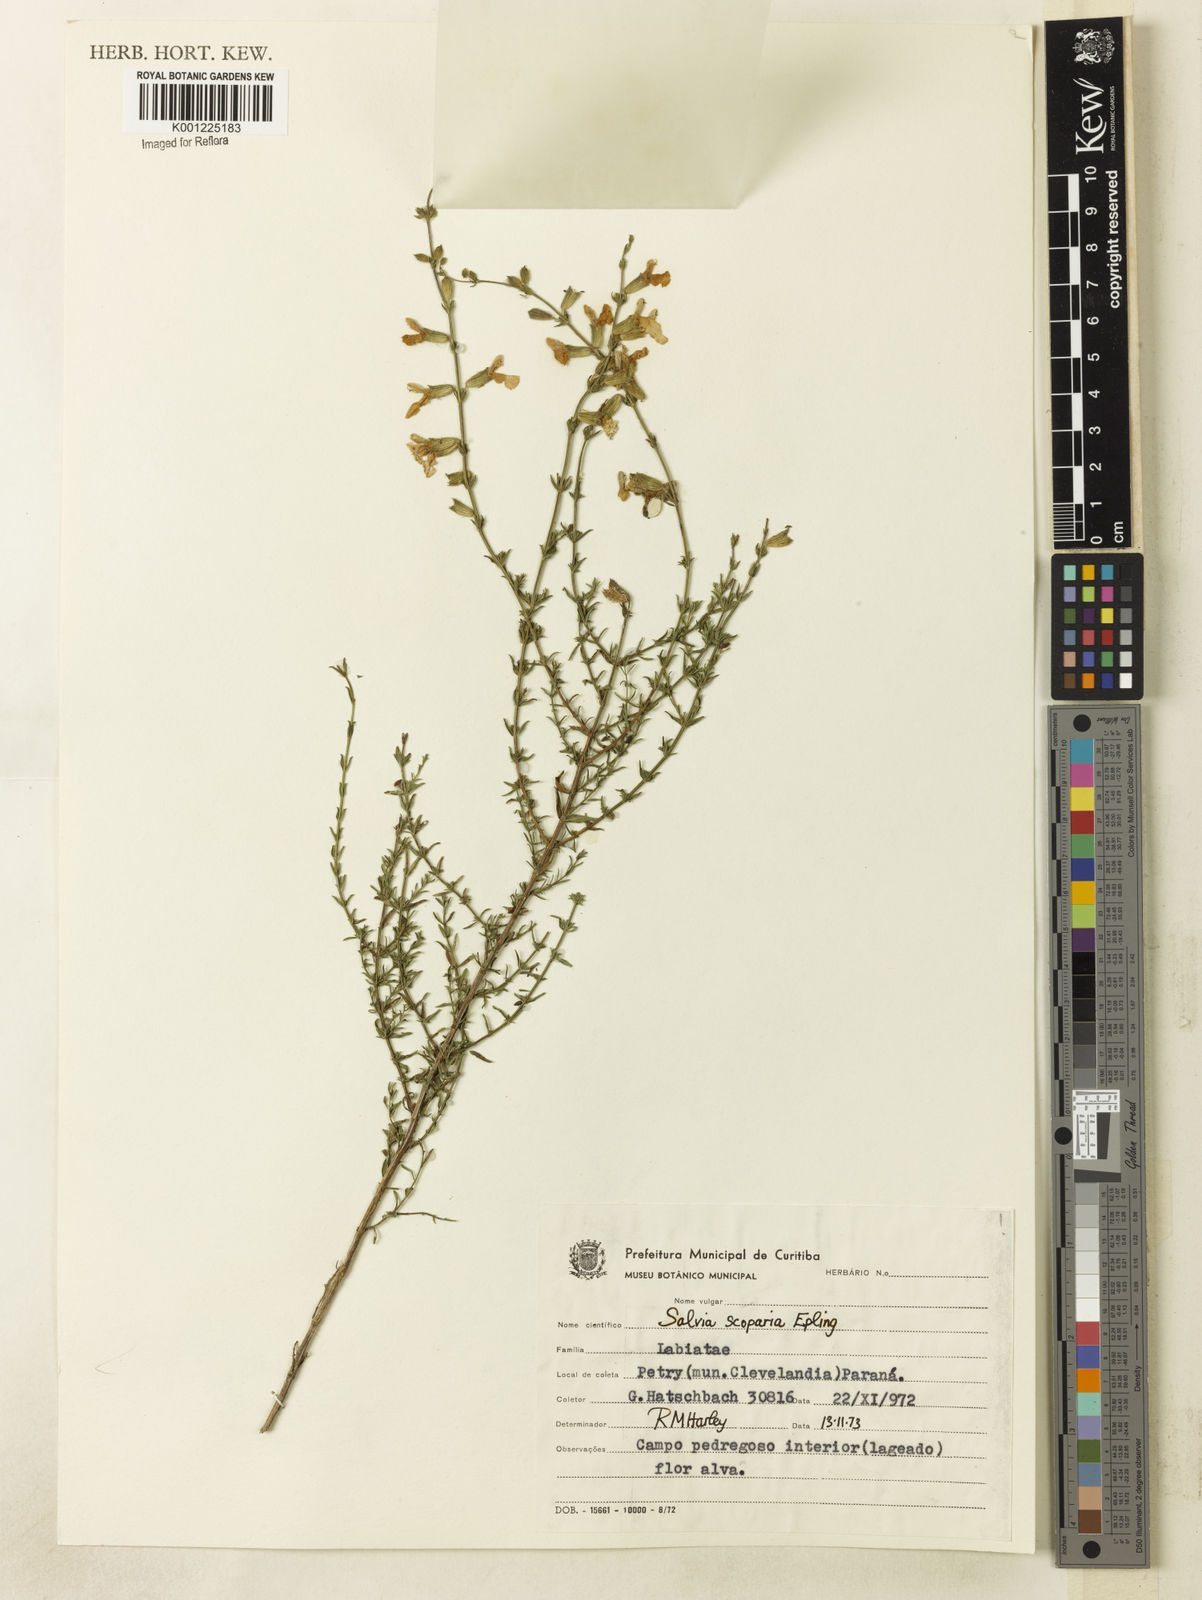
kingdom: Plantae
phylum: Tracheophyta
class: Magnoliopsida
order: Lamiales
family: Lamiaceae
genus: Salvia
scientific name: Salvia scoparia
